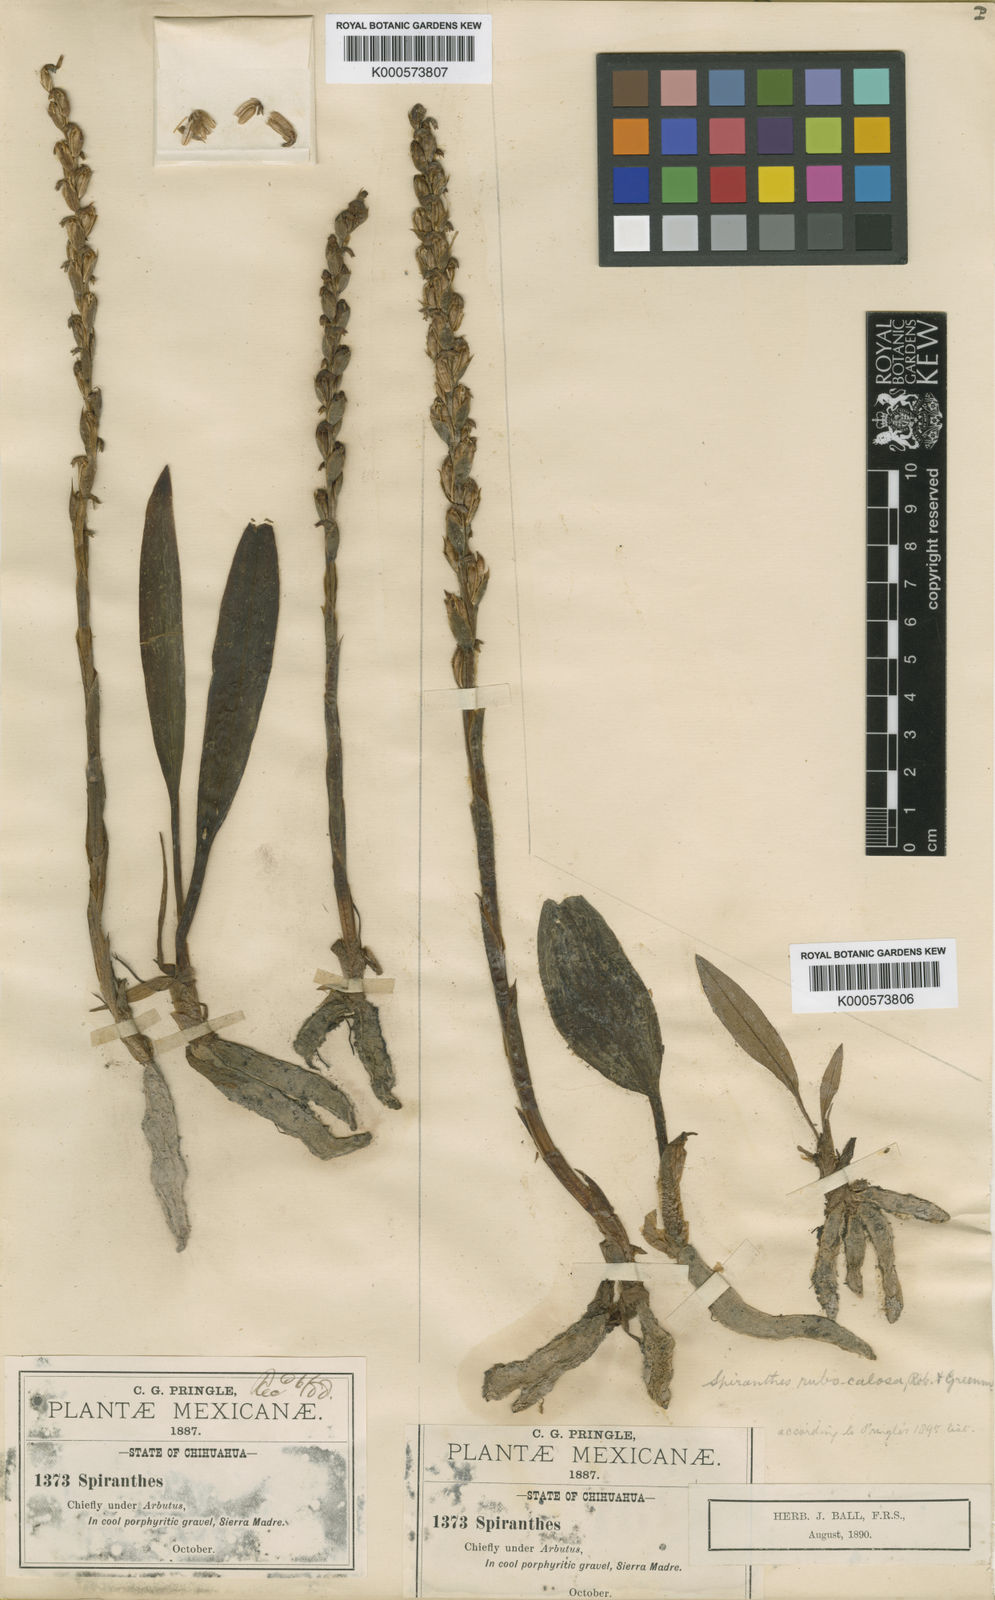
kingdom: Plantae
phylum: Tracheophyta
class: Liliopsida
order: Asparagales
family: Orchidaceae
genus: Microthelys
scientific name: Microthelys rubrocalosa
